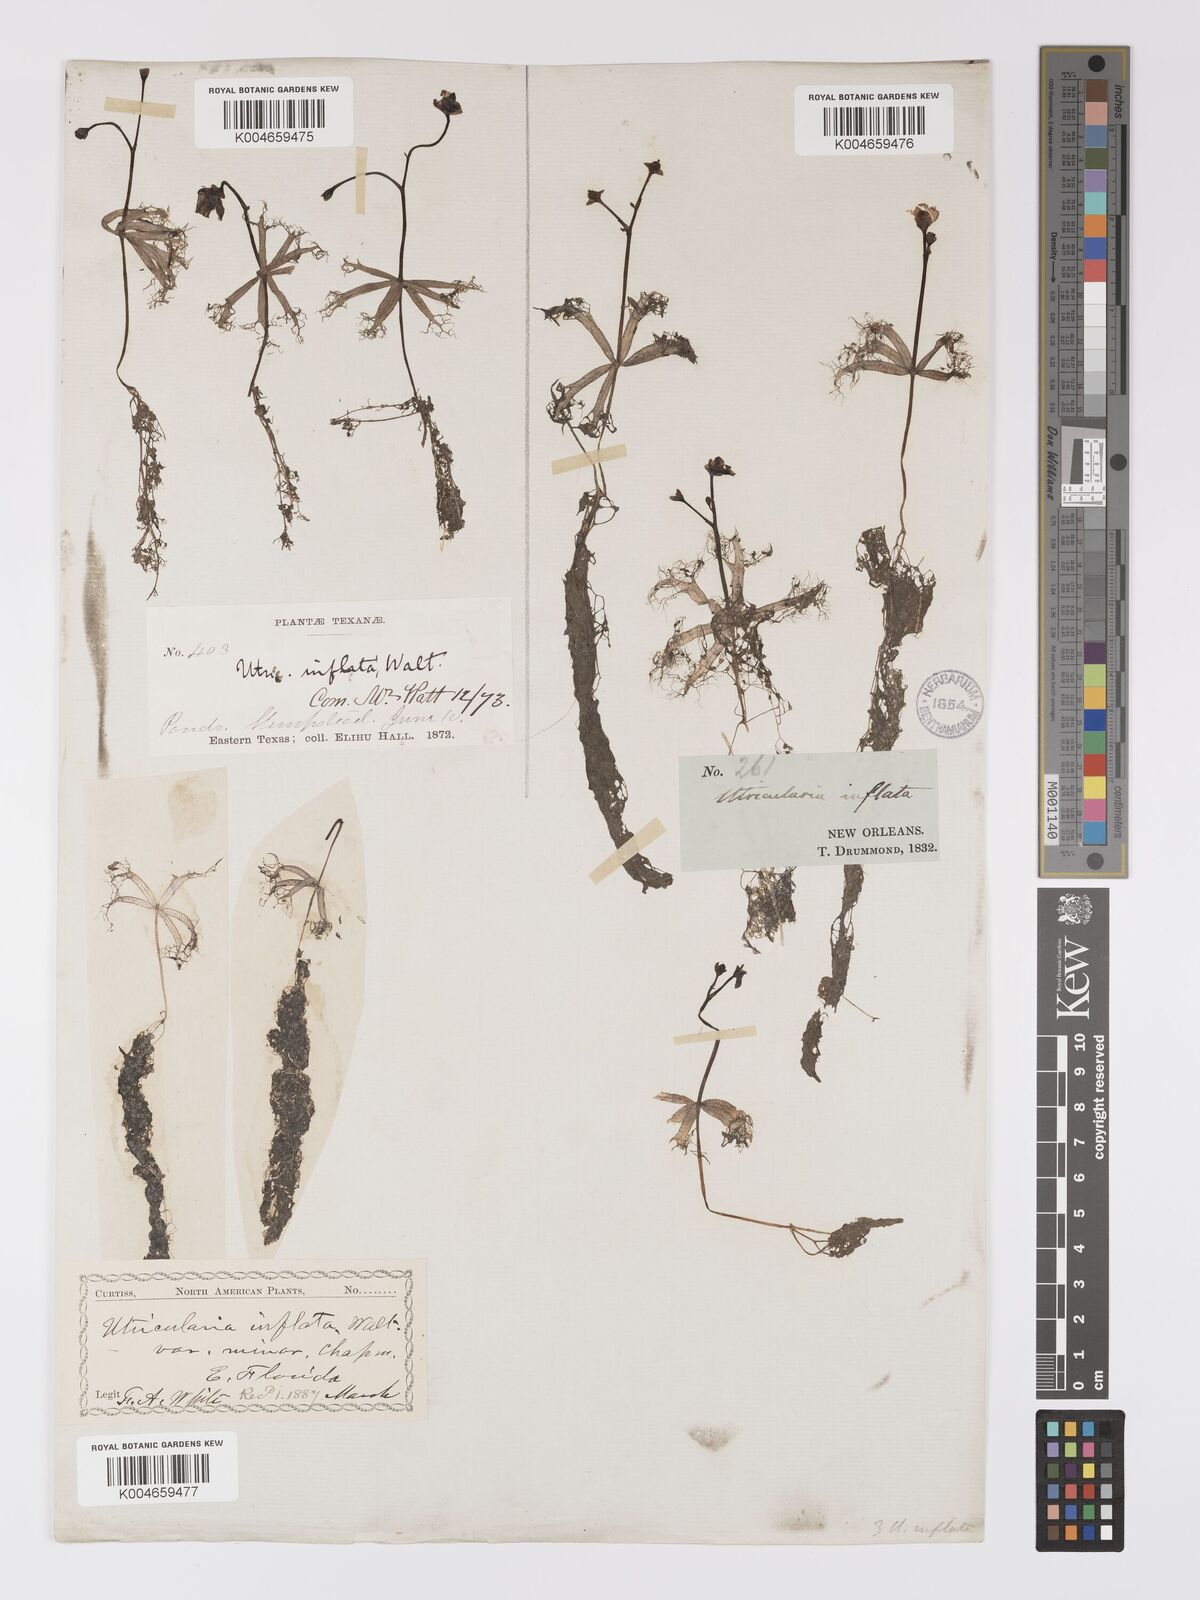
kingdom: Plantae
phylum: Tracheophyta
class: Magnoliopsida
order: Lamiales
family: Lentibulariaceae
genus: Utricularia
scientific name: Utricularia radiata
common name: Floating bladderwort
